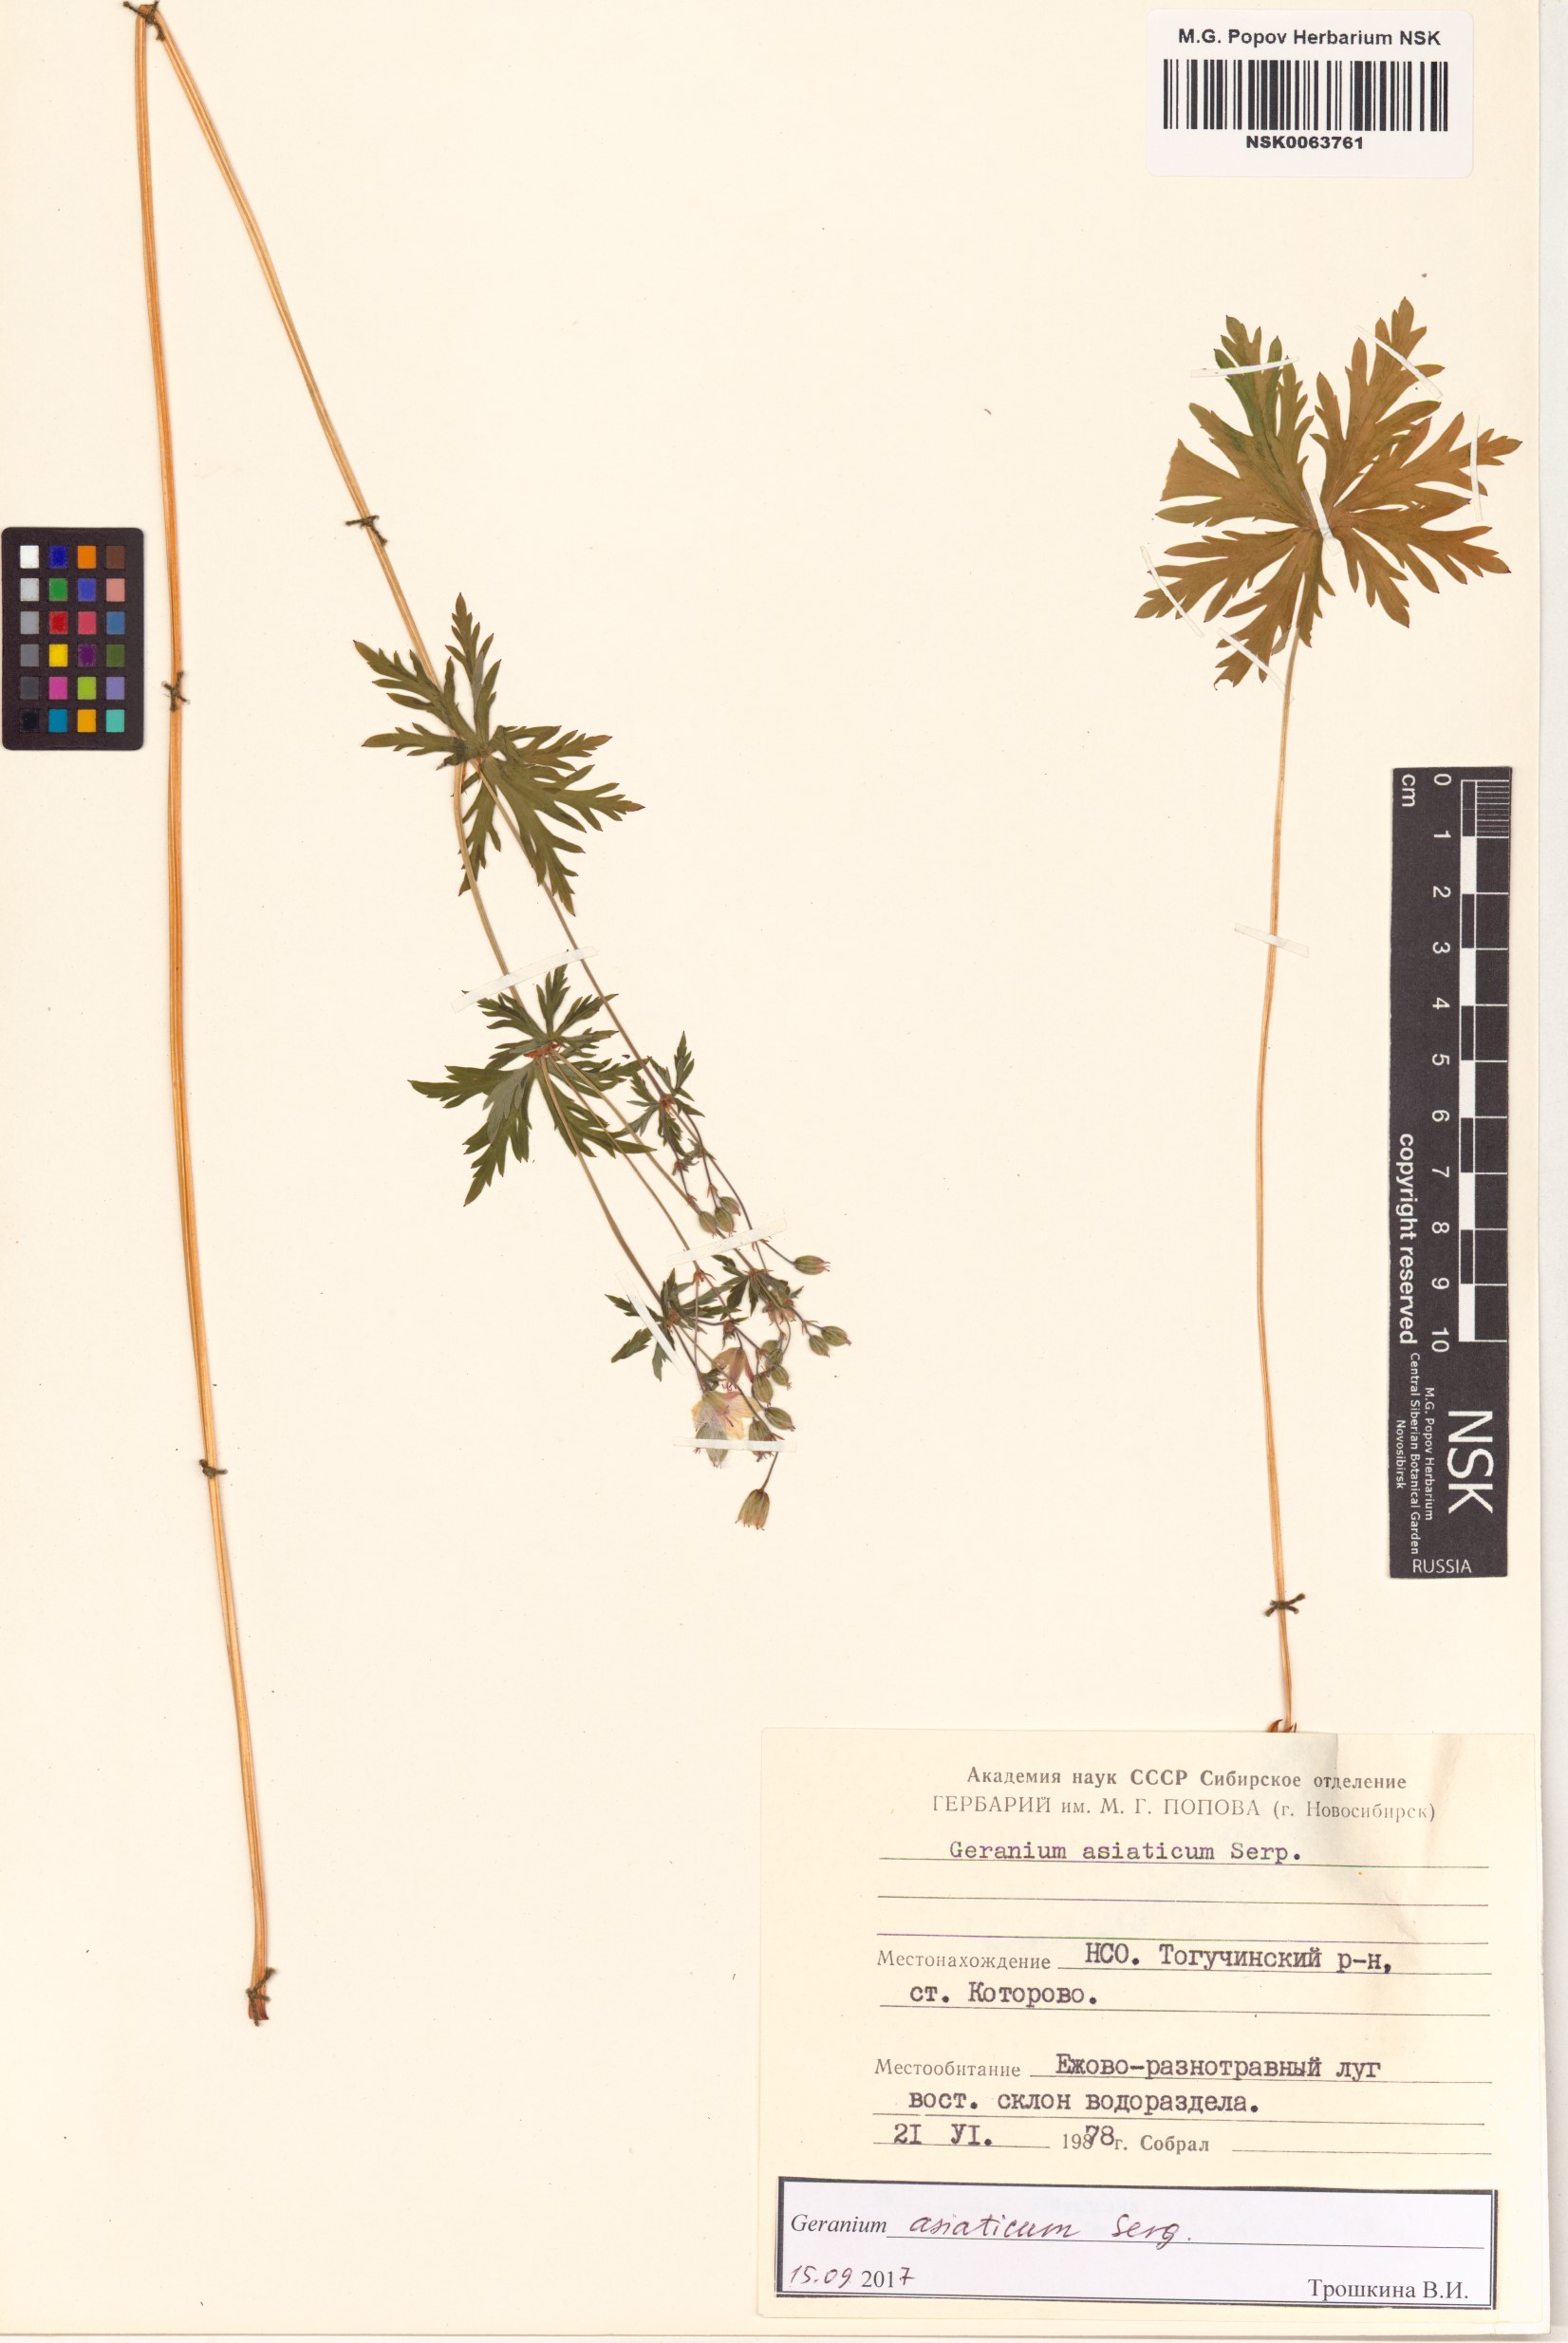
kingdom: Plantae
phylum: Tracheophyta
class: Magnoliopsida
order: Geraniales
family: Geraniaceae
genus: Geranium
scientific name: Geranium pseudosibiricum
